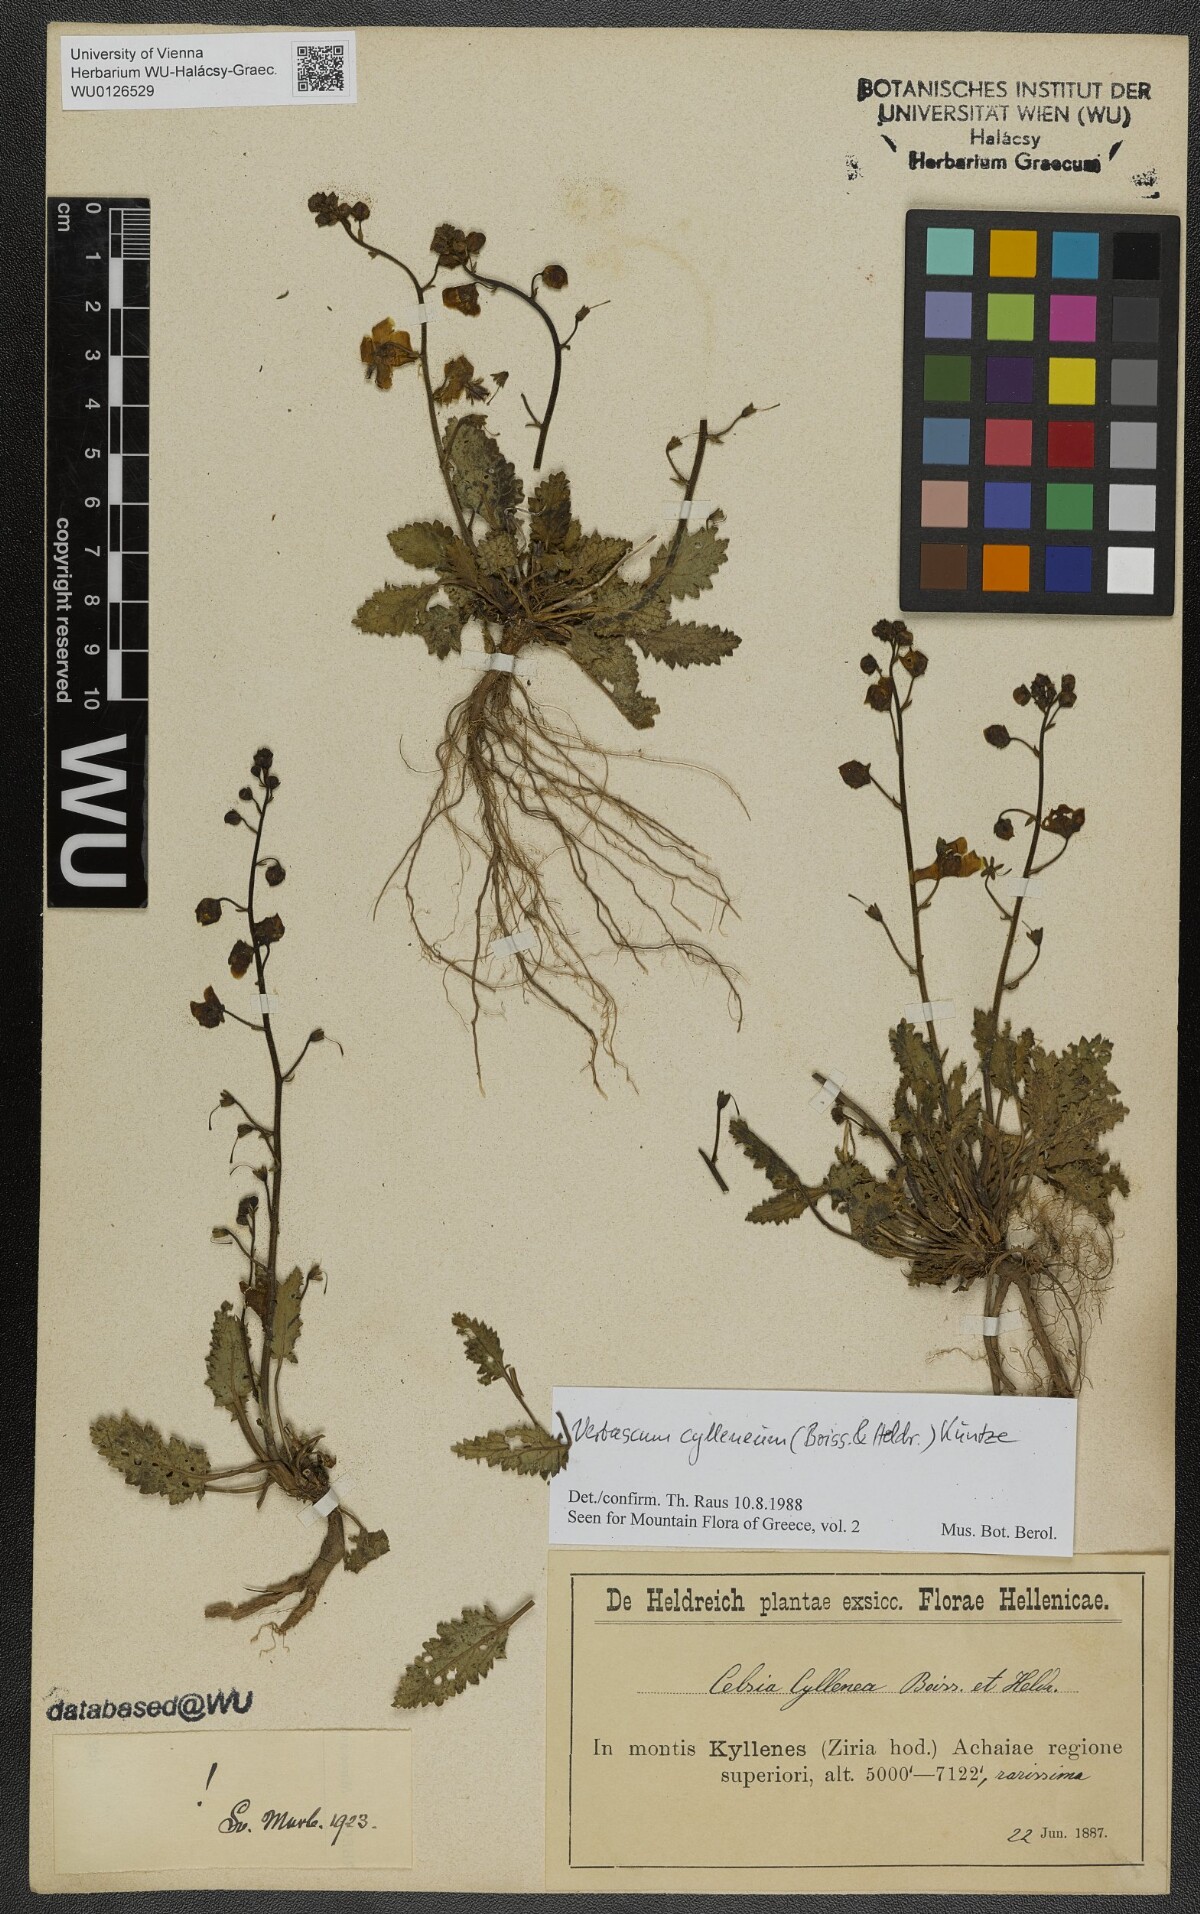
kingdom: Plantae
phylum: Tracheophyta
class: Magnoliopsida
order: Lamiales
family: Scrophulariaceae
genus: Verbascum
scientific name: Verbascum cylleneum
